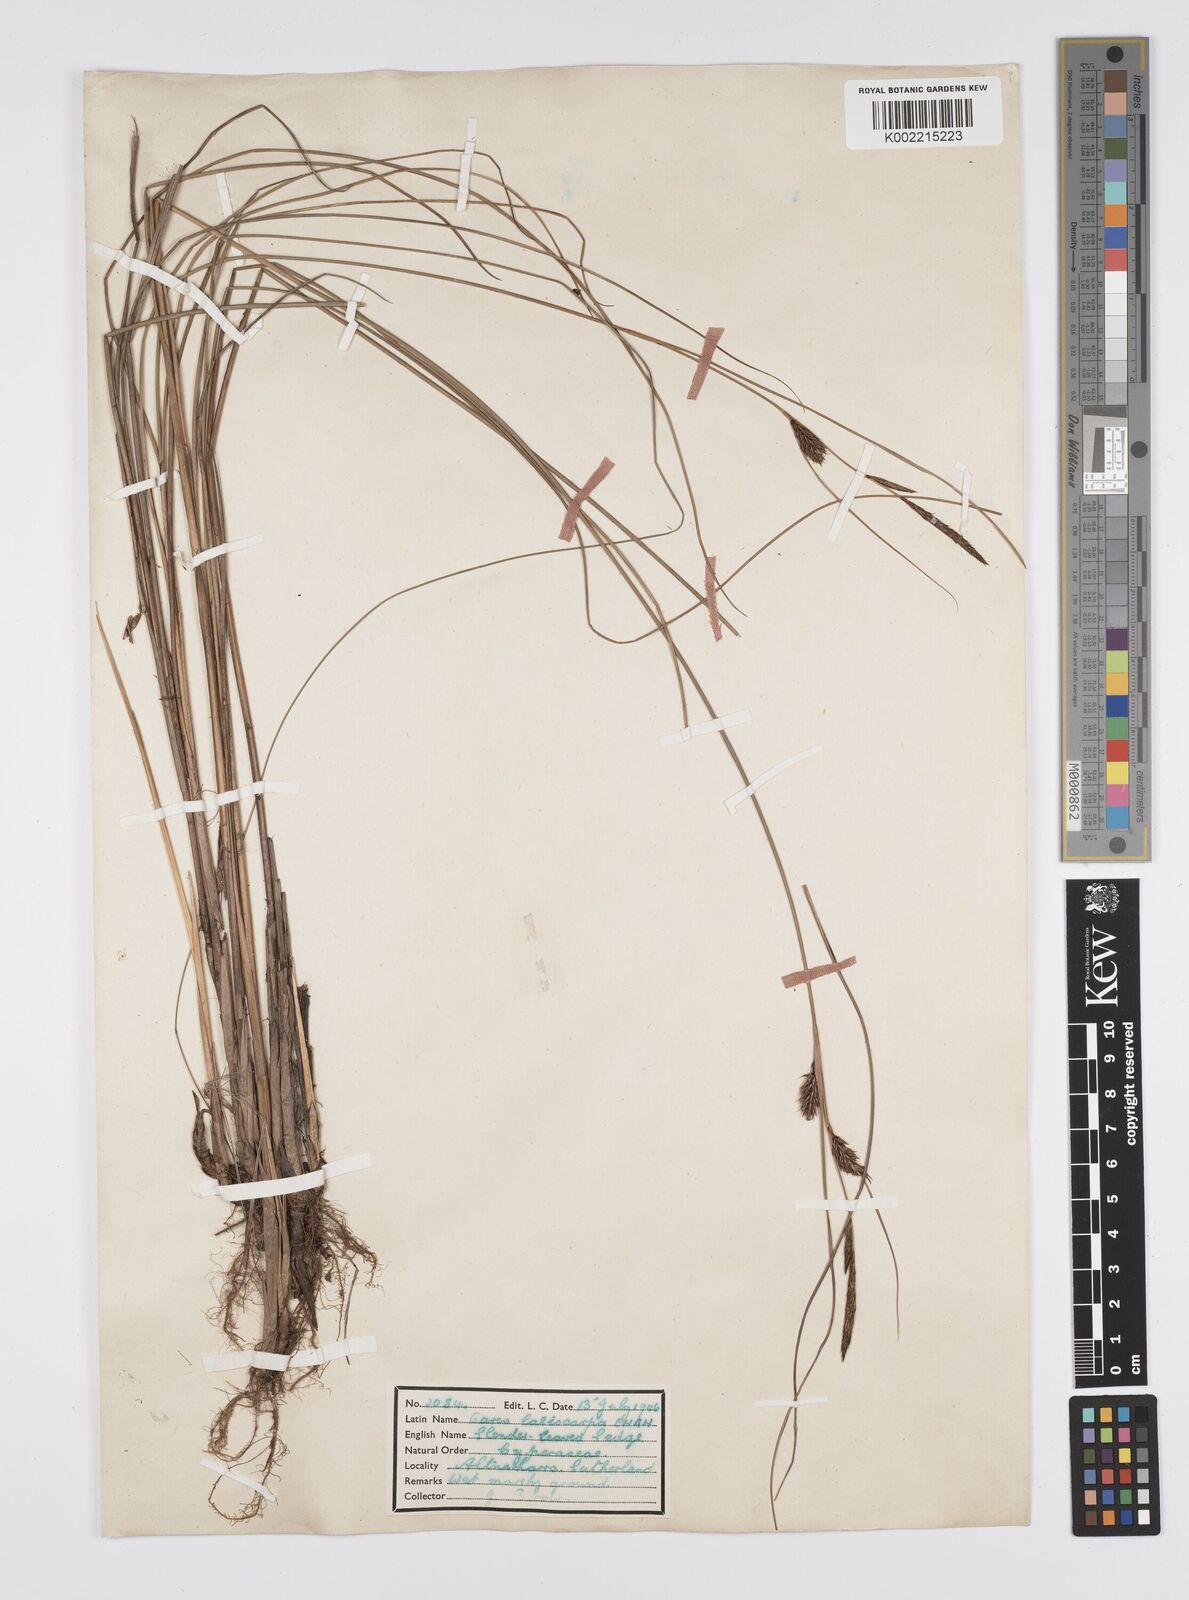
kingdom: Plantae
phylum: Tracheophyta
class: Liliopsida
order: Poales
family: Cyperaceae
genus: Carex
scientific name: Carex lasiocarpa
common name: Slender sedge
